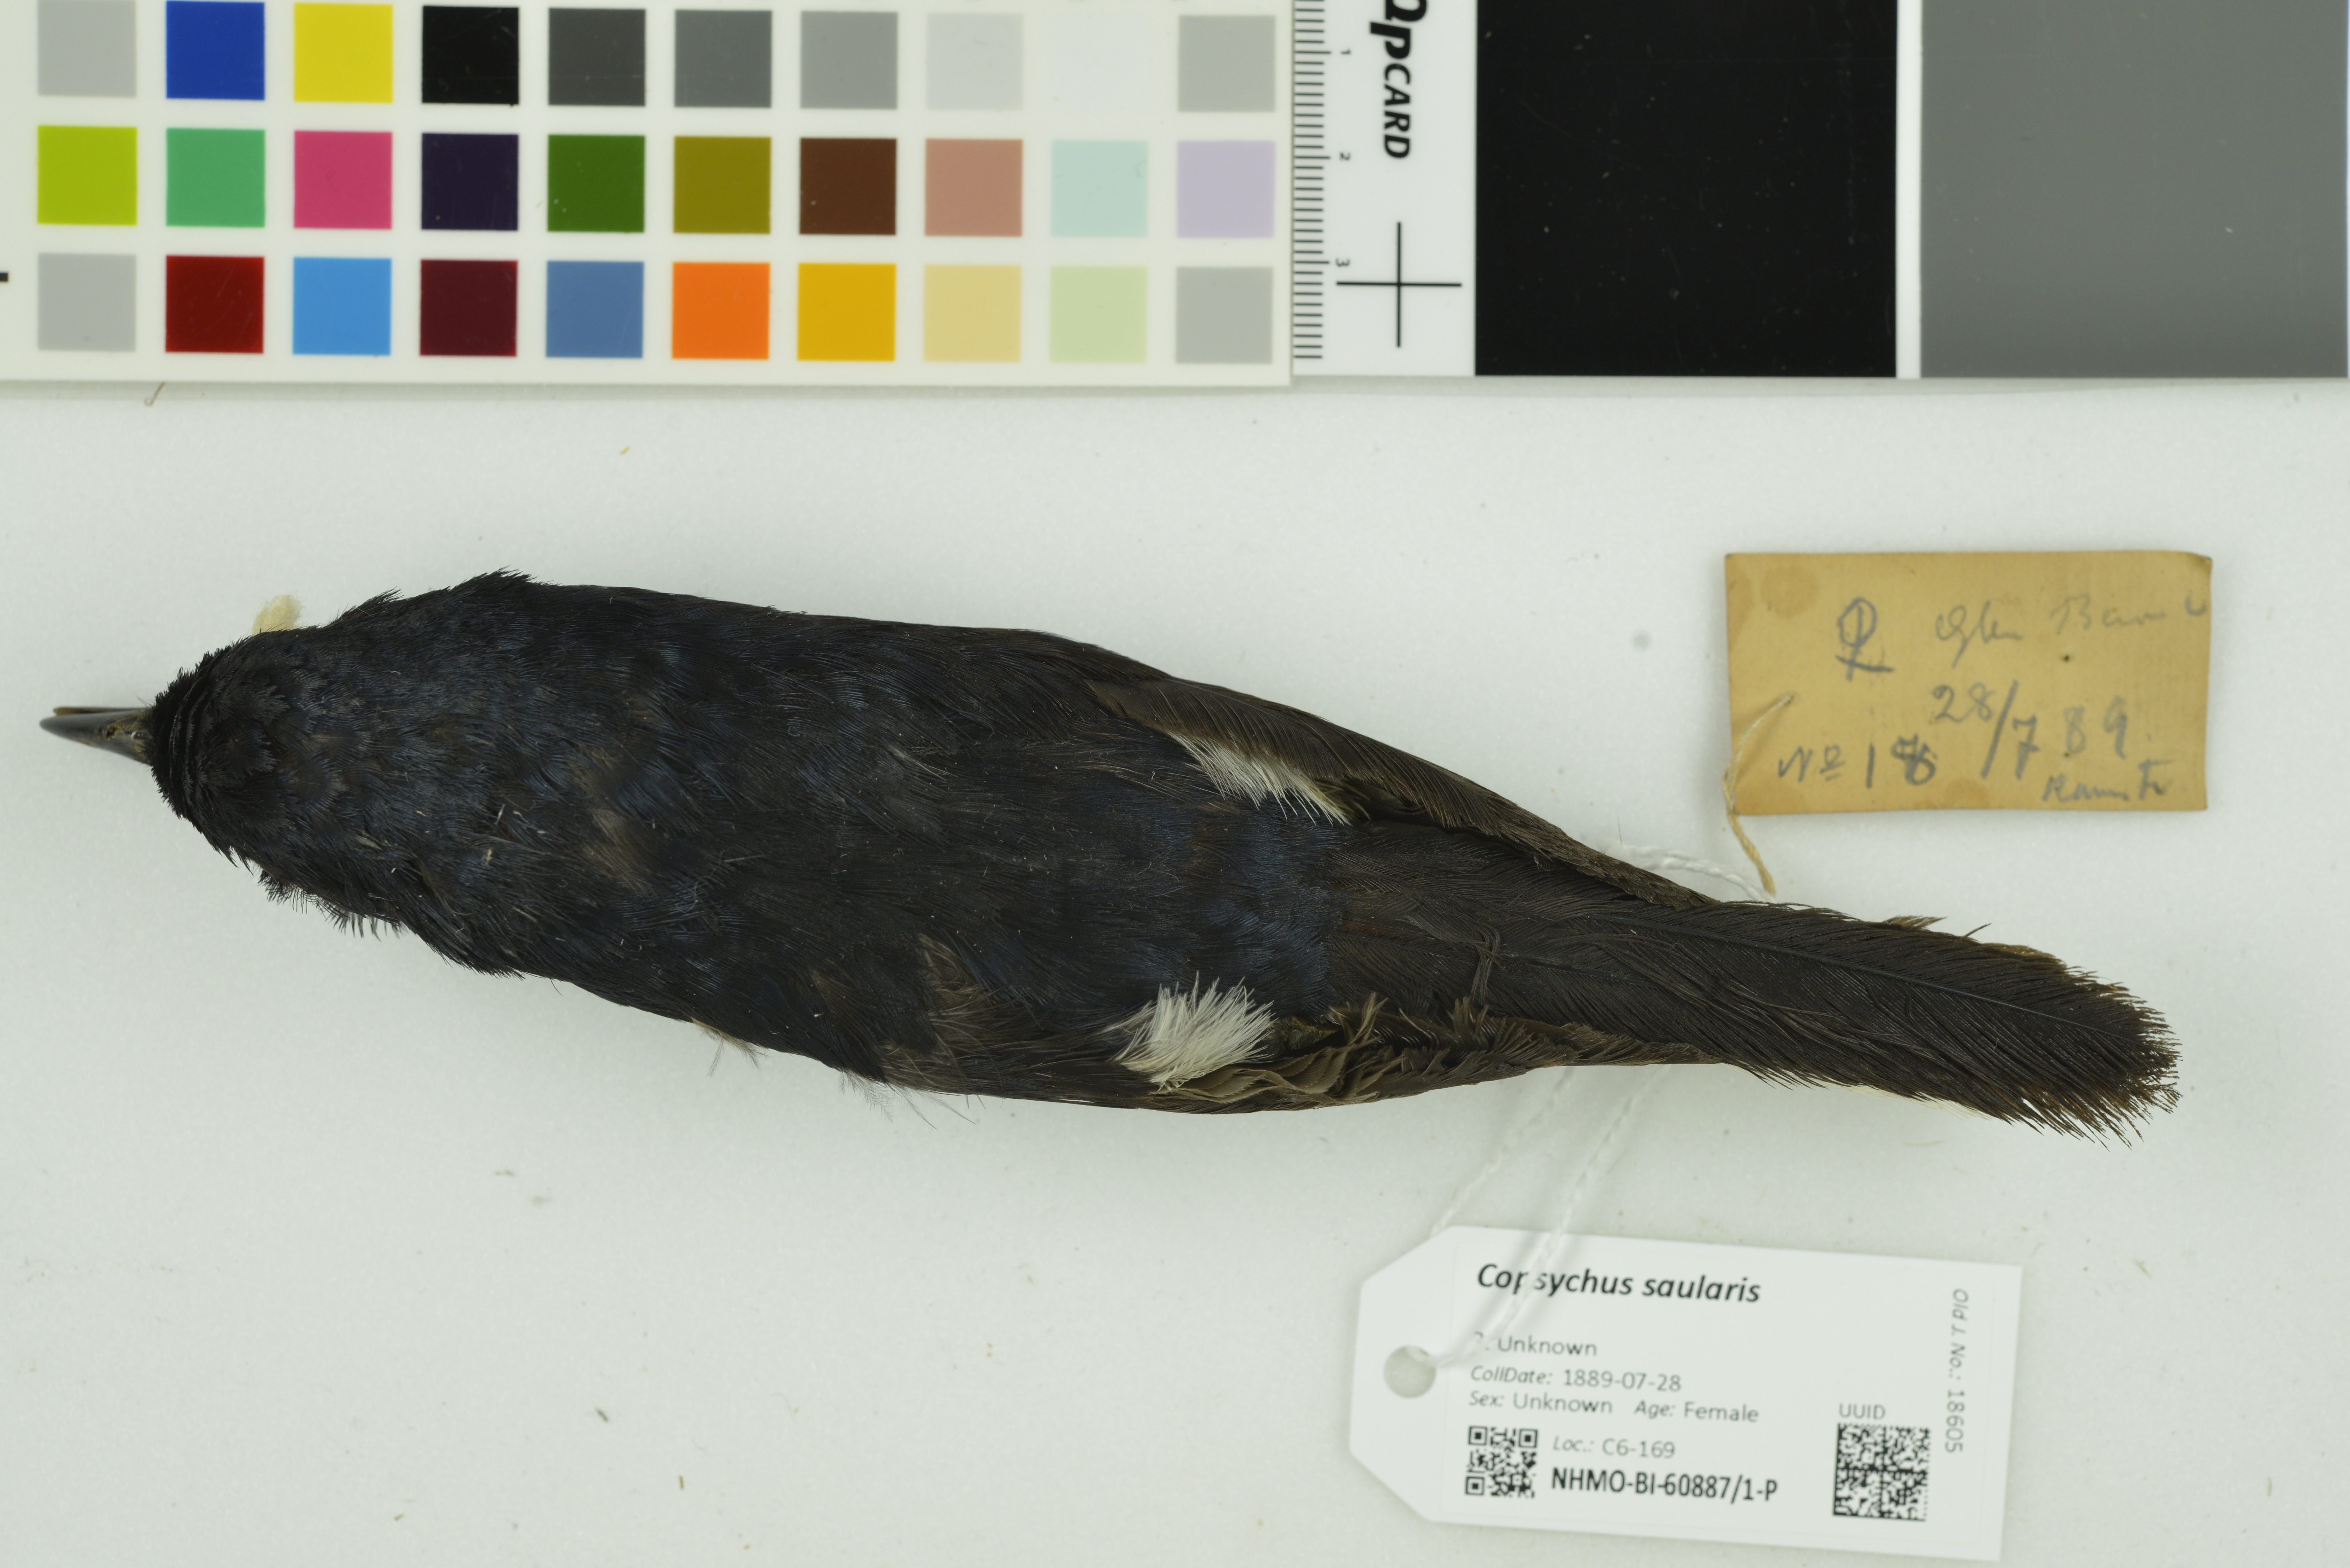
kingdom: Animalia
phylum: Chordata
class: Aves
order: Passeriformes
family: Muscicapidae
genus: Copsychus
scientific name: Copsychus saularis
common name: Oriental magpie-robin
